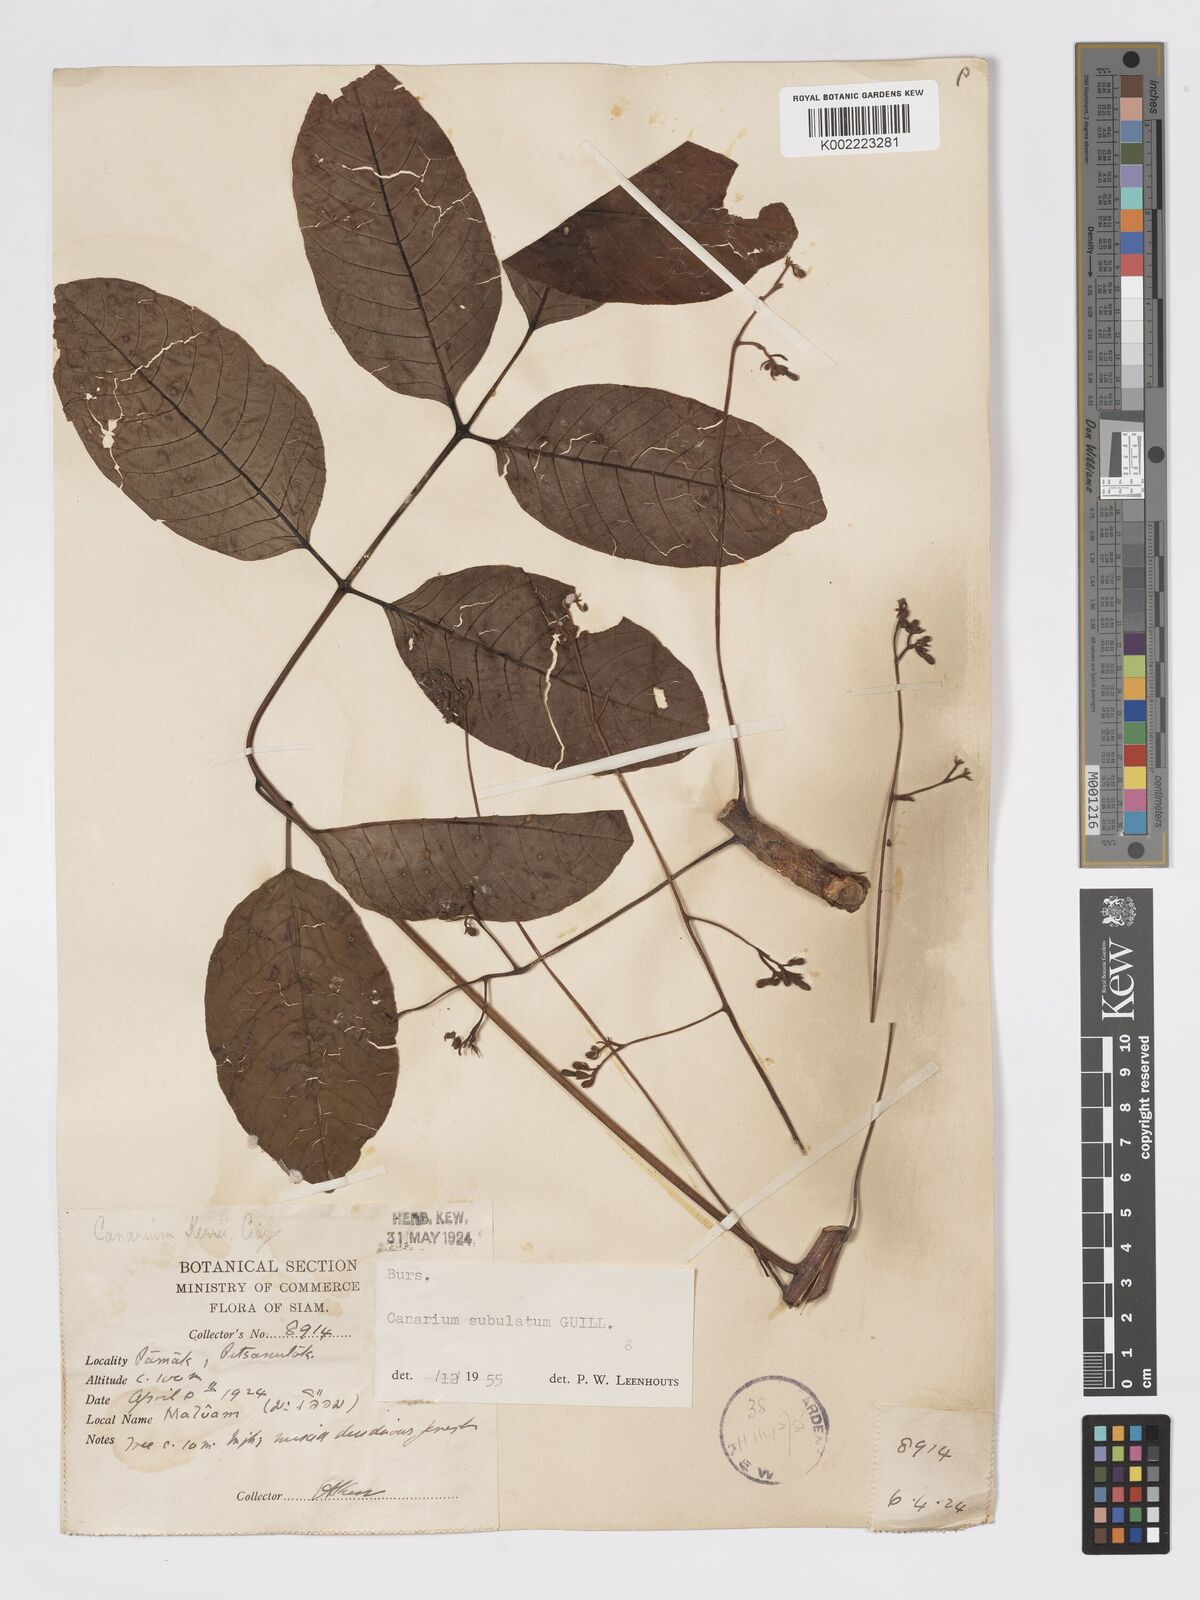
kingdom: Plantae
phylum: Tracheophyta
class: Magnoliopsida
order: Sapindales
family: Burseraceae
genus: Canarium
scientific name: Canarium subulatum
